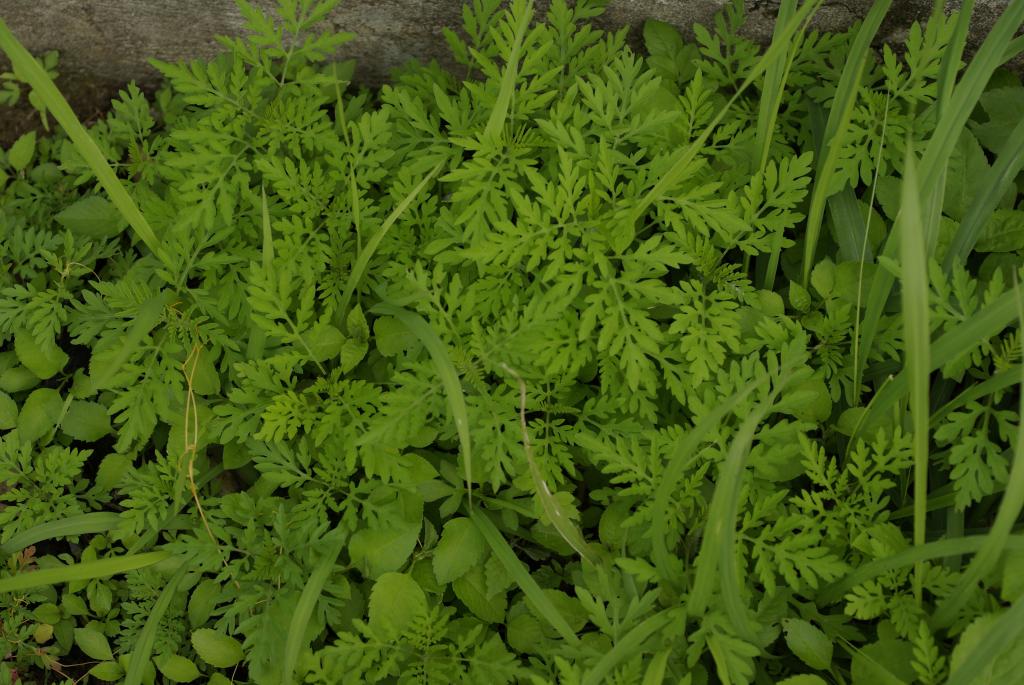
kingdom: Plantae
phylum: Tracheophyta
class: Magnoliopsida
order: Asterales
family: Asteraceae
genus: Ambrosia
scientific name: Ambrosia artemisiifolia
